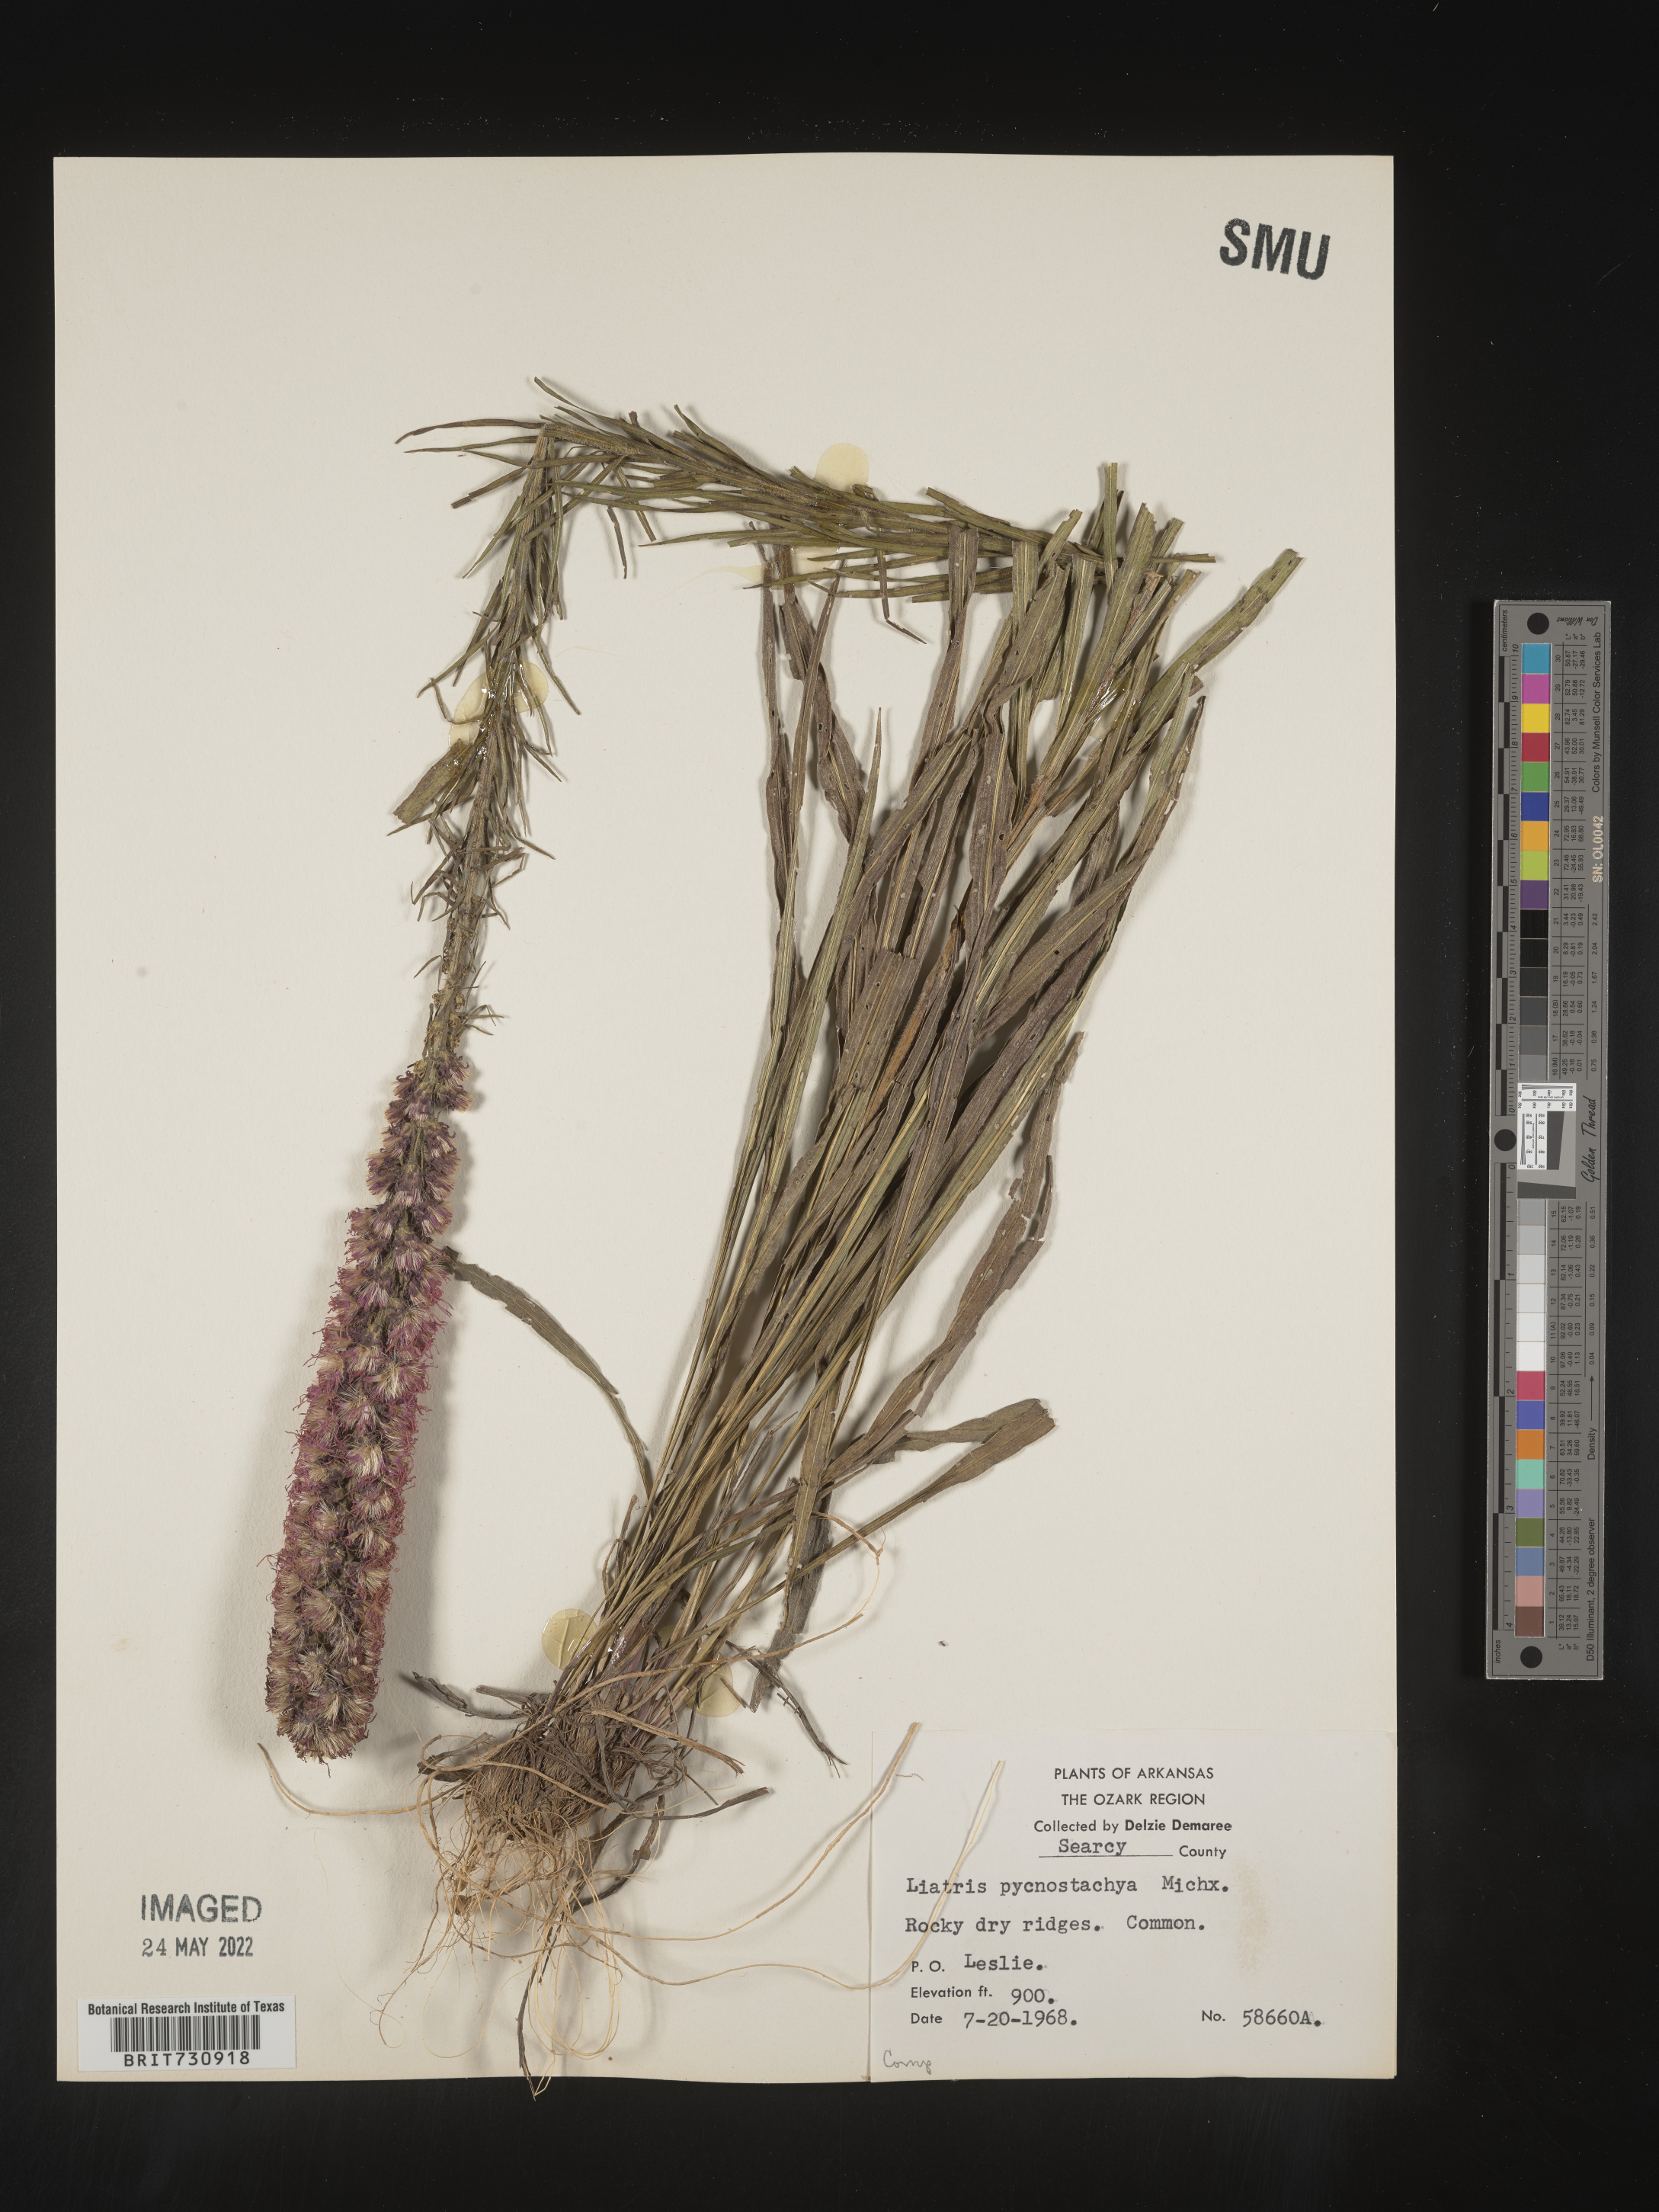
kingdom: Plantae
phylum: Tracheophyta
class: Magnoliopsida
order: Asterales
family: Asteraceae
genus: Liatris
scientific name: Liatris pycnostachya
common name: Cattail gayfeather
